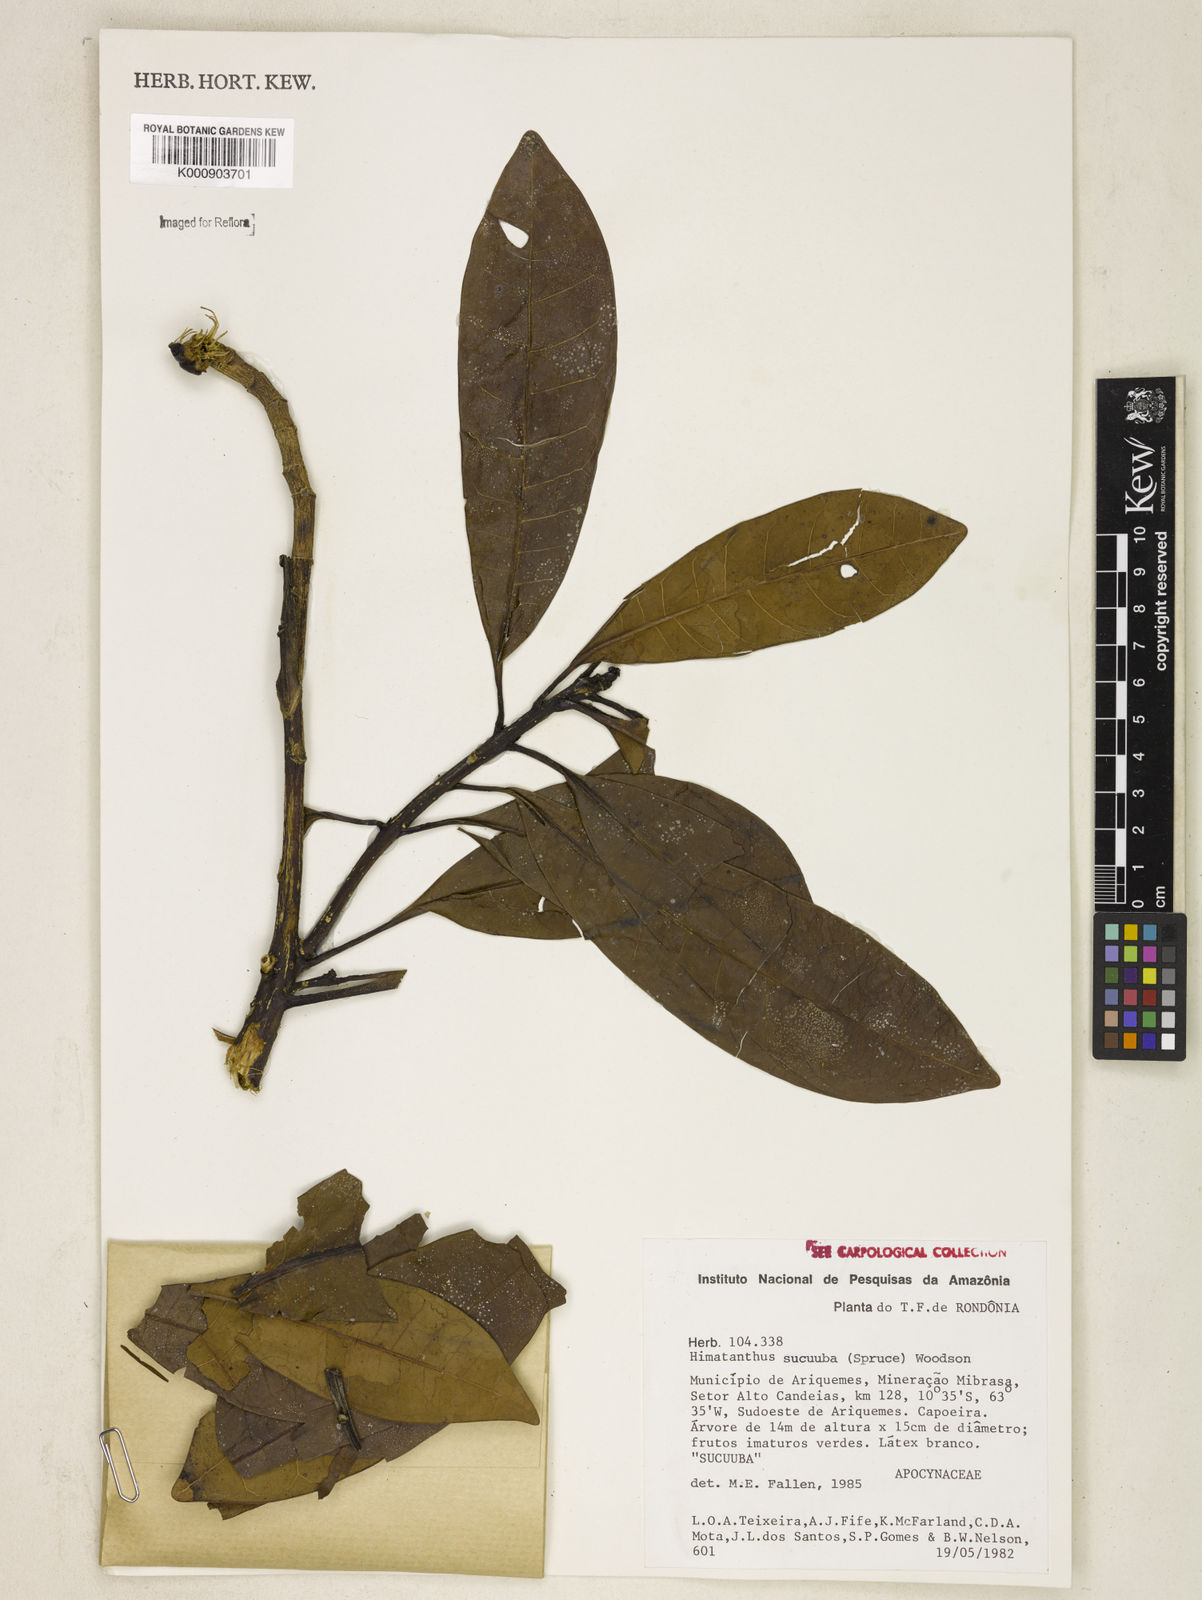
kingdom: Plantae
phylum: Tracheophyta
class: Magnoliopsida
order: Gentianales
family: Apocynaceae
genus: Himatanthus
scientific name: Himatanthus articulatus
